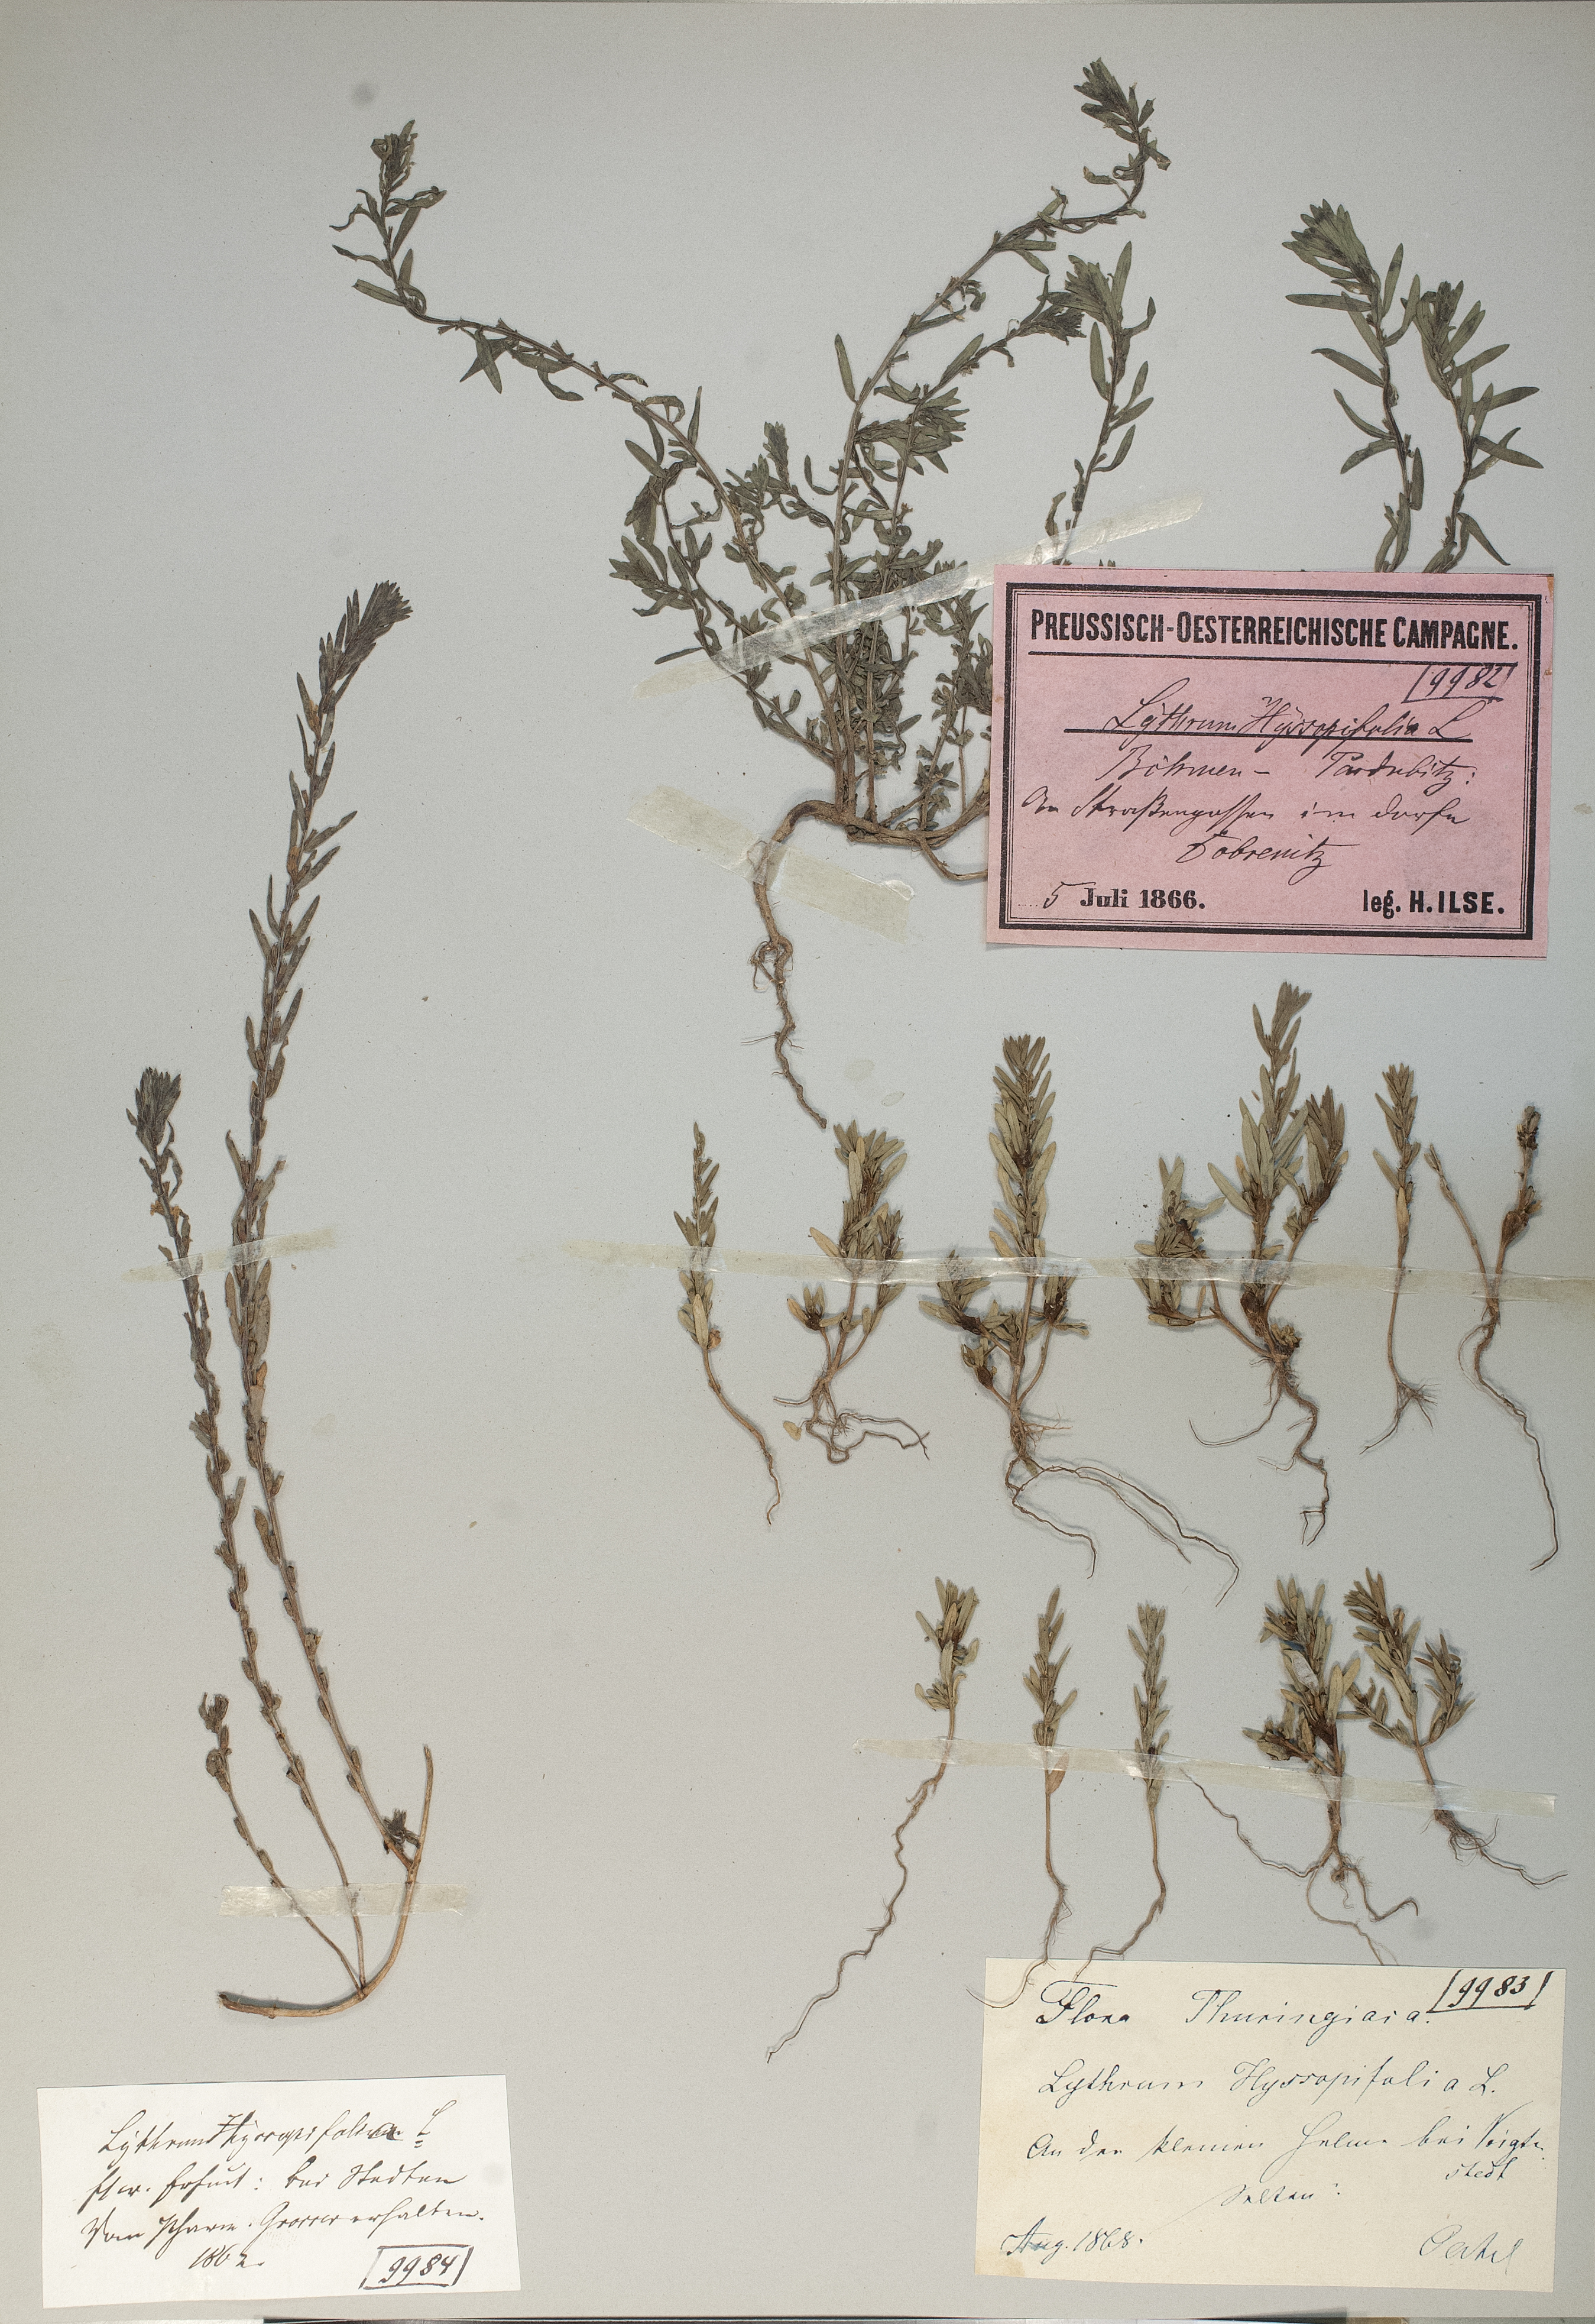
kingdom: Plantae
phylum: Tracheophyta
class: Magnoliopsida
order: Myrtales
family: Lythraceae
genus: Lythrum
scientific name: Lythrum hyssopifolia
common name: Grass-poly
